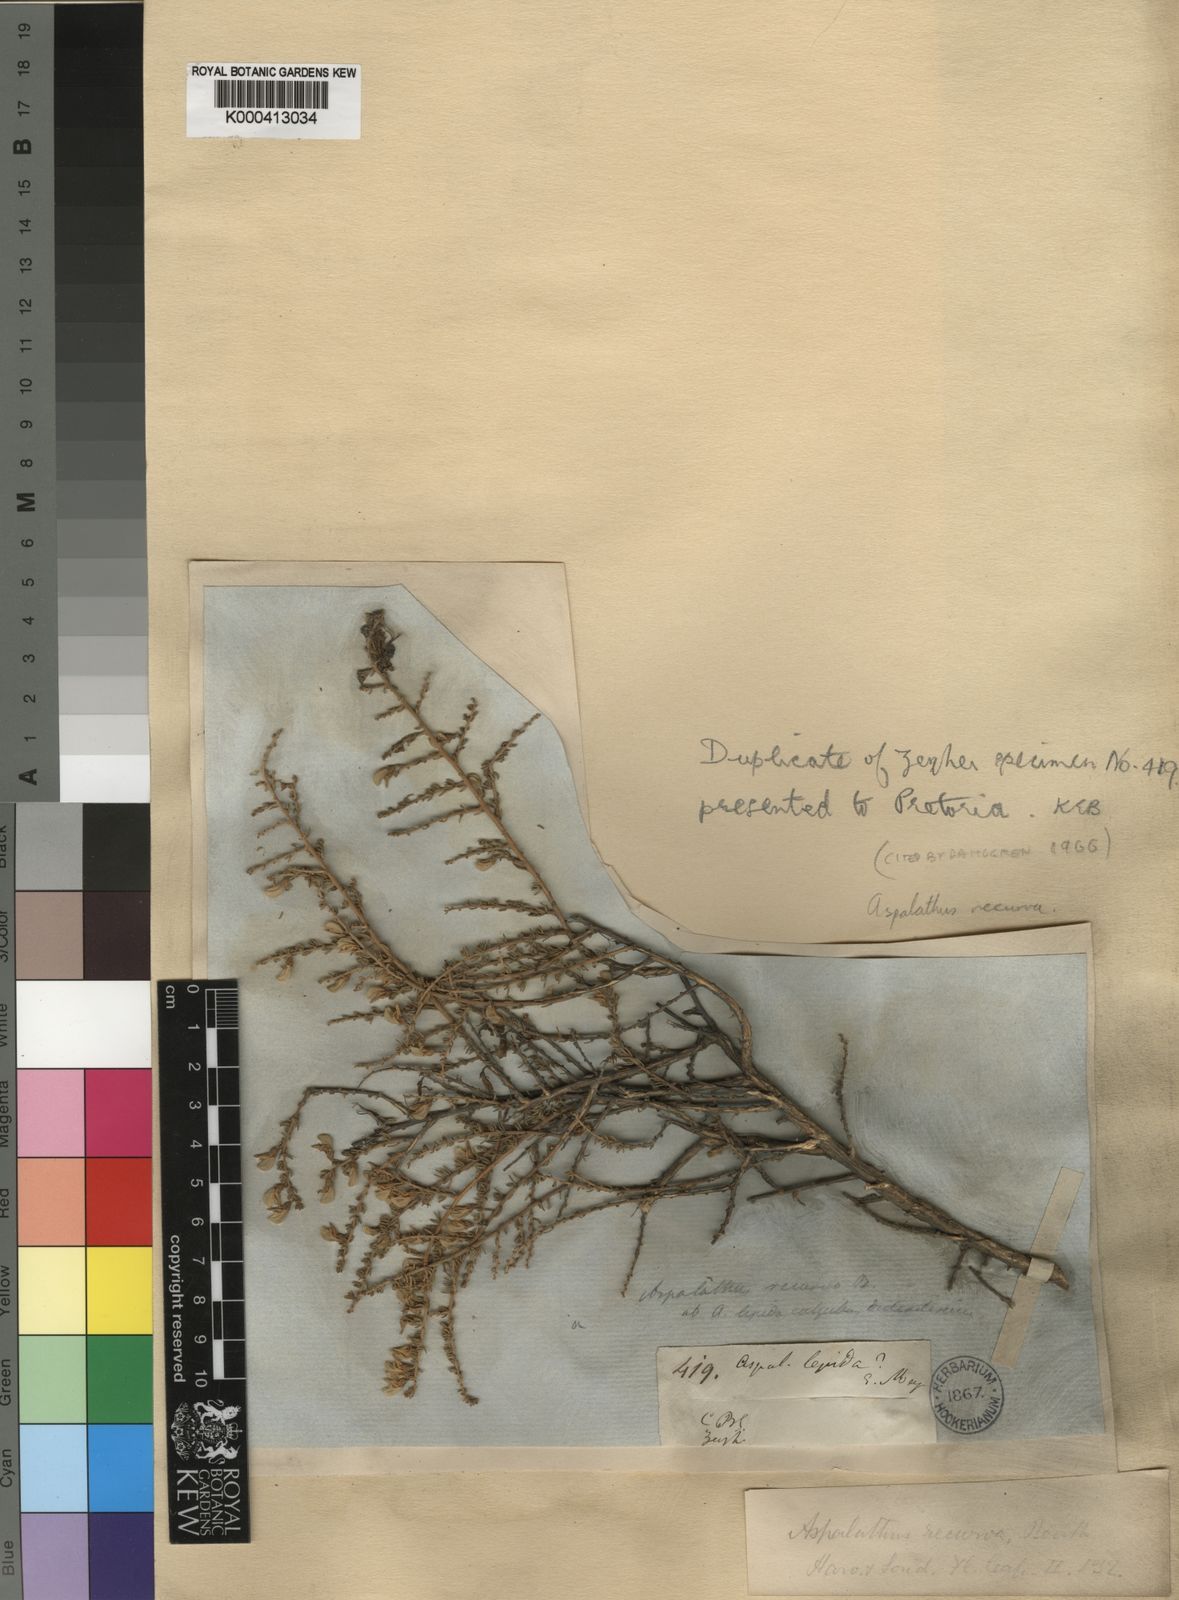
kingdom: Plantae
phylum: Tracheophyta
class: Magnoliopsida
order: Fabales
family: Fabaceae
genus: Aspalathus
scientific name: Aspalathus recurva
